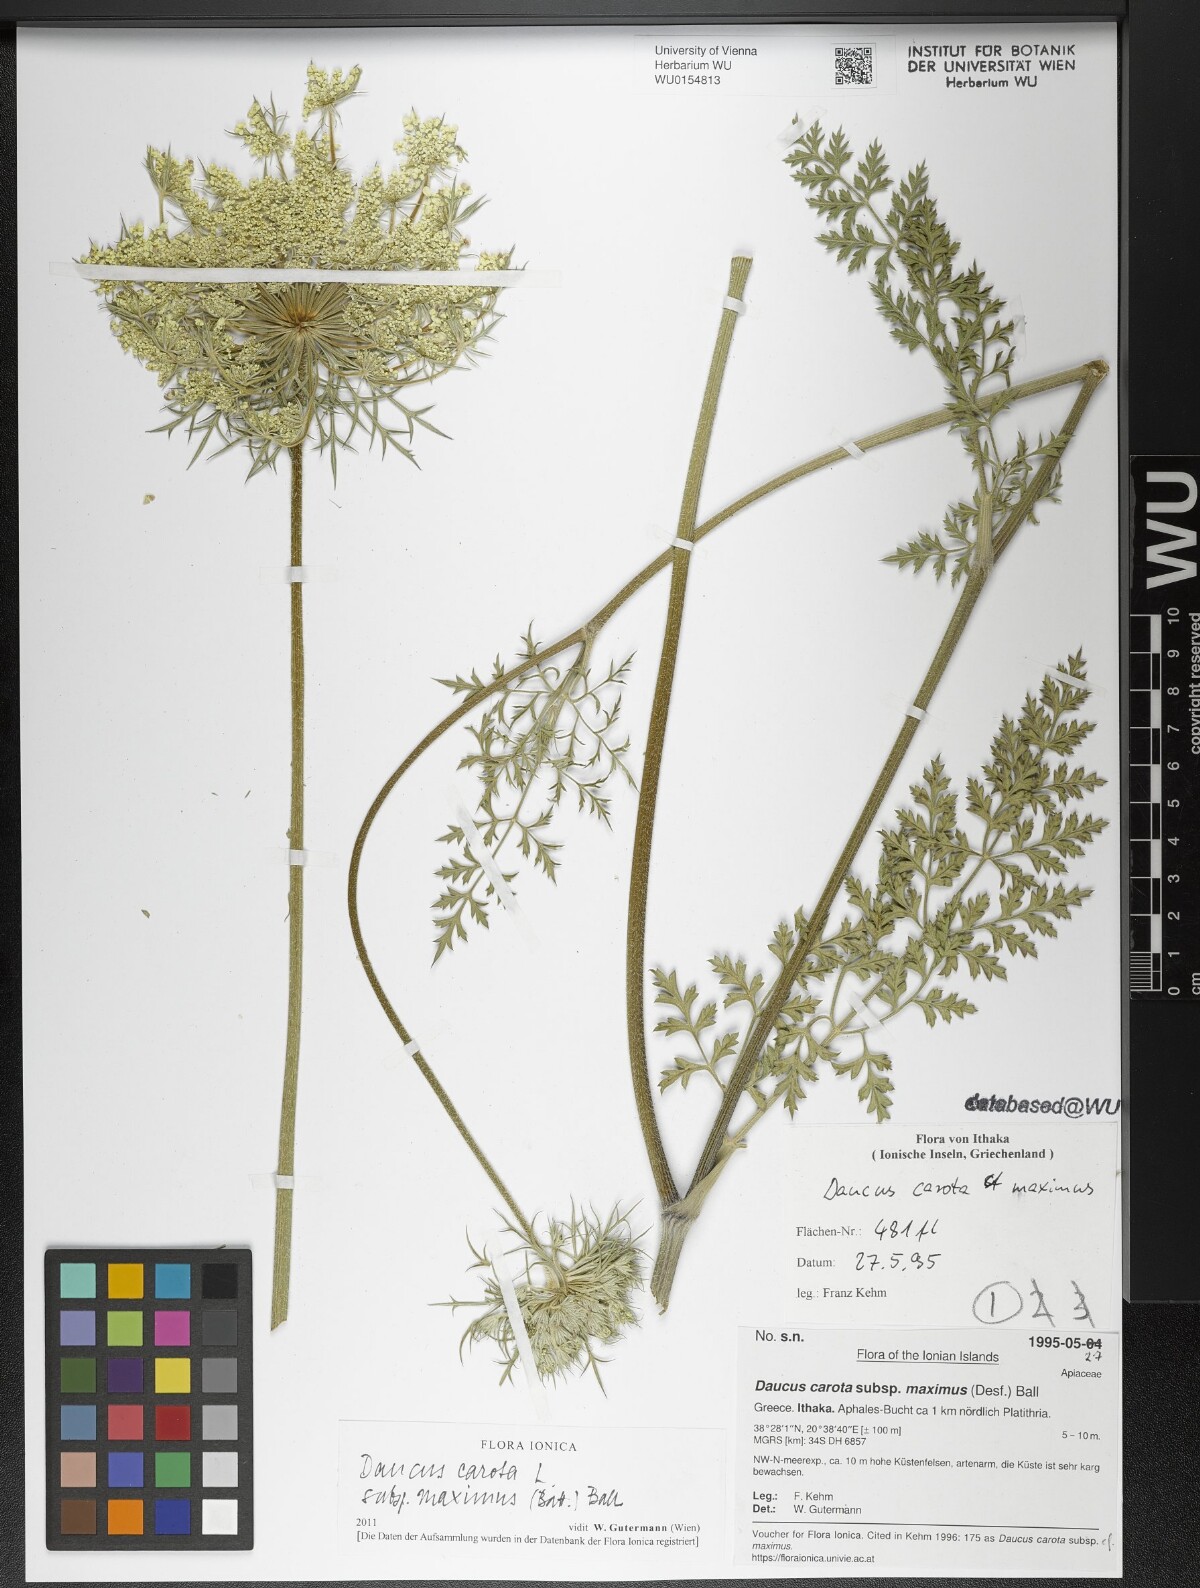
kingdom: Plantae
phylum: Tracheophyta
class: Magnoliopsida
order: Apiales
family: Apiaceae
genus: Daucus
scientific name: Daucus carota
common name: Wild carrot
